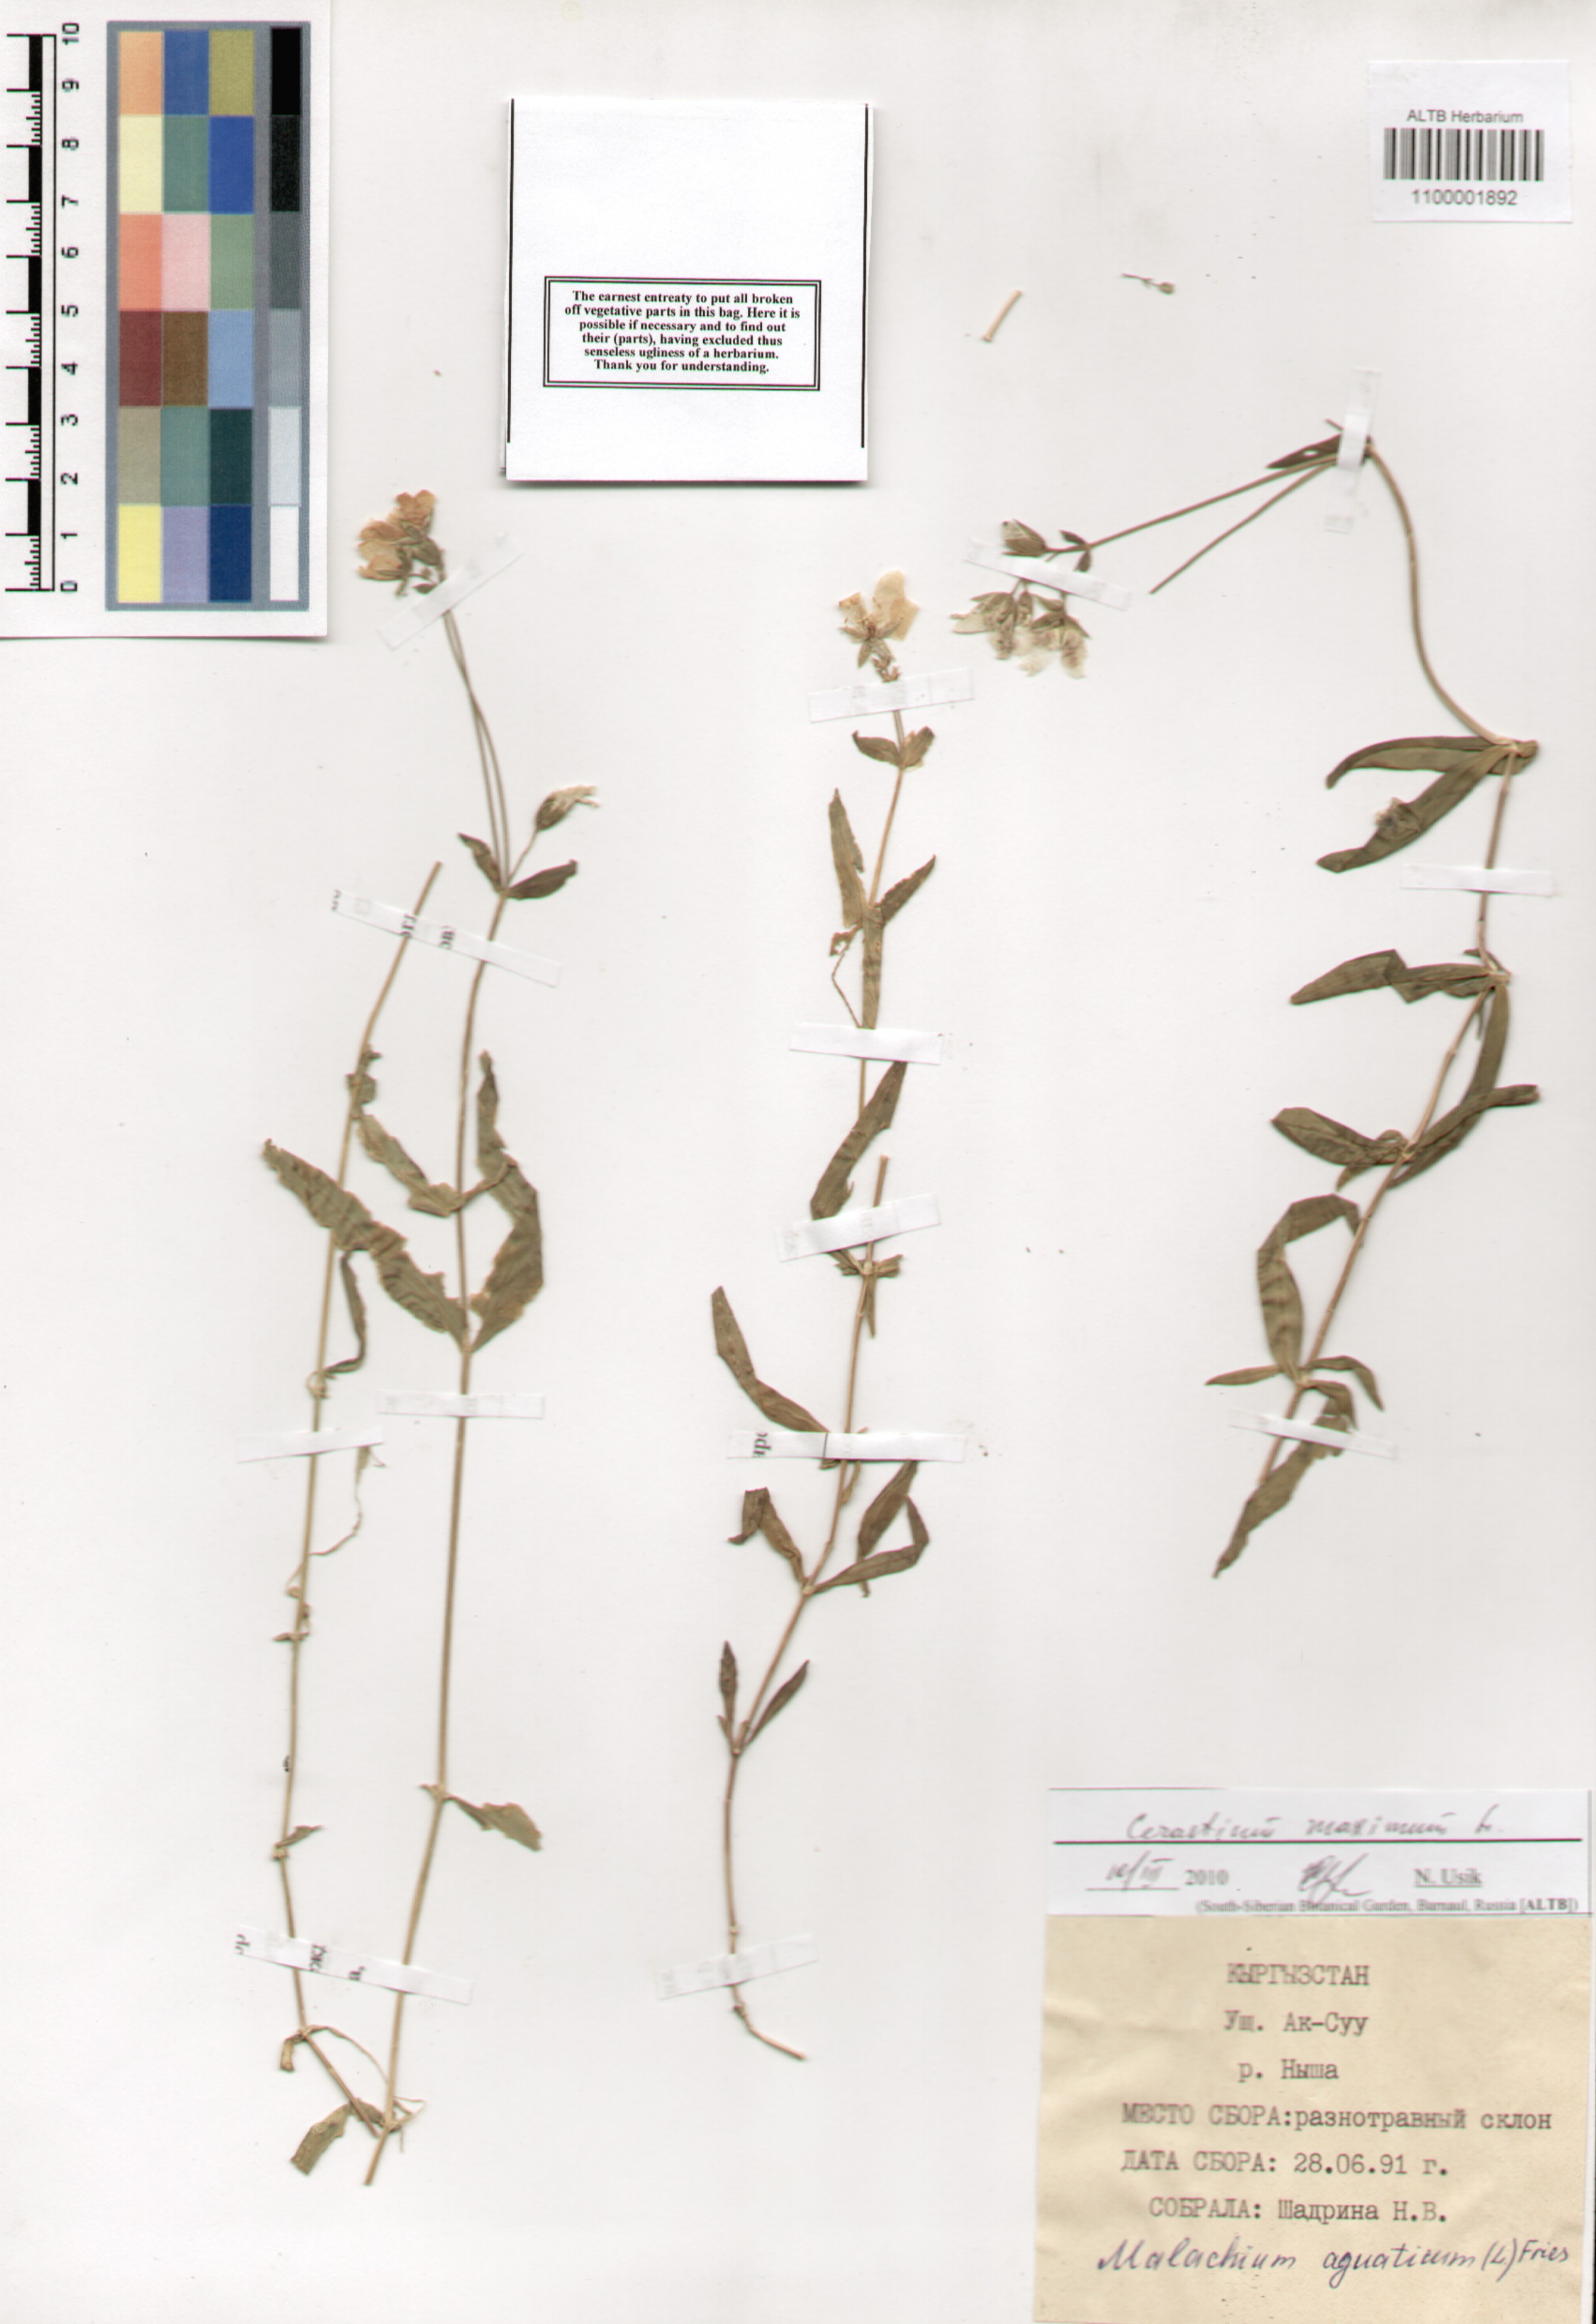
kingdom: Plantae
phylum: Tracheophyta
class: Magnoliopsida
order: Caryophyllales
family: Caryophyllaceae
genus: Dichodon
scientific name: Dichodon maximum
